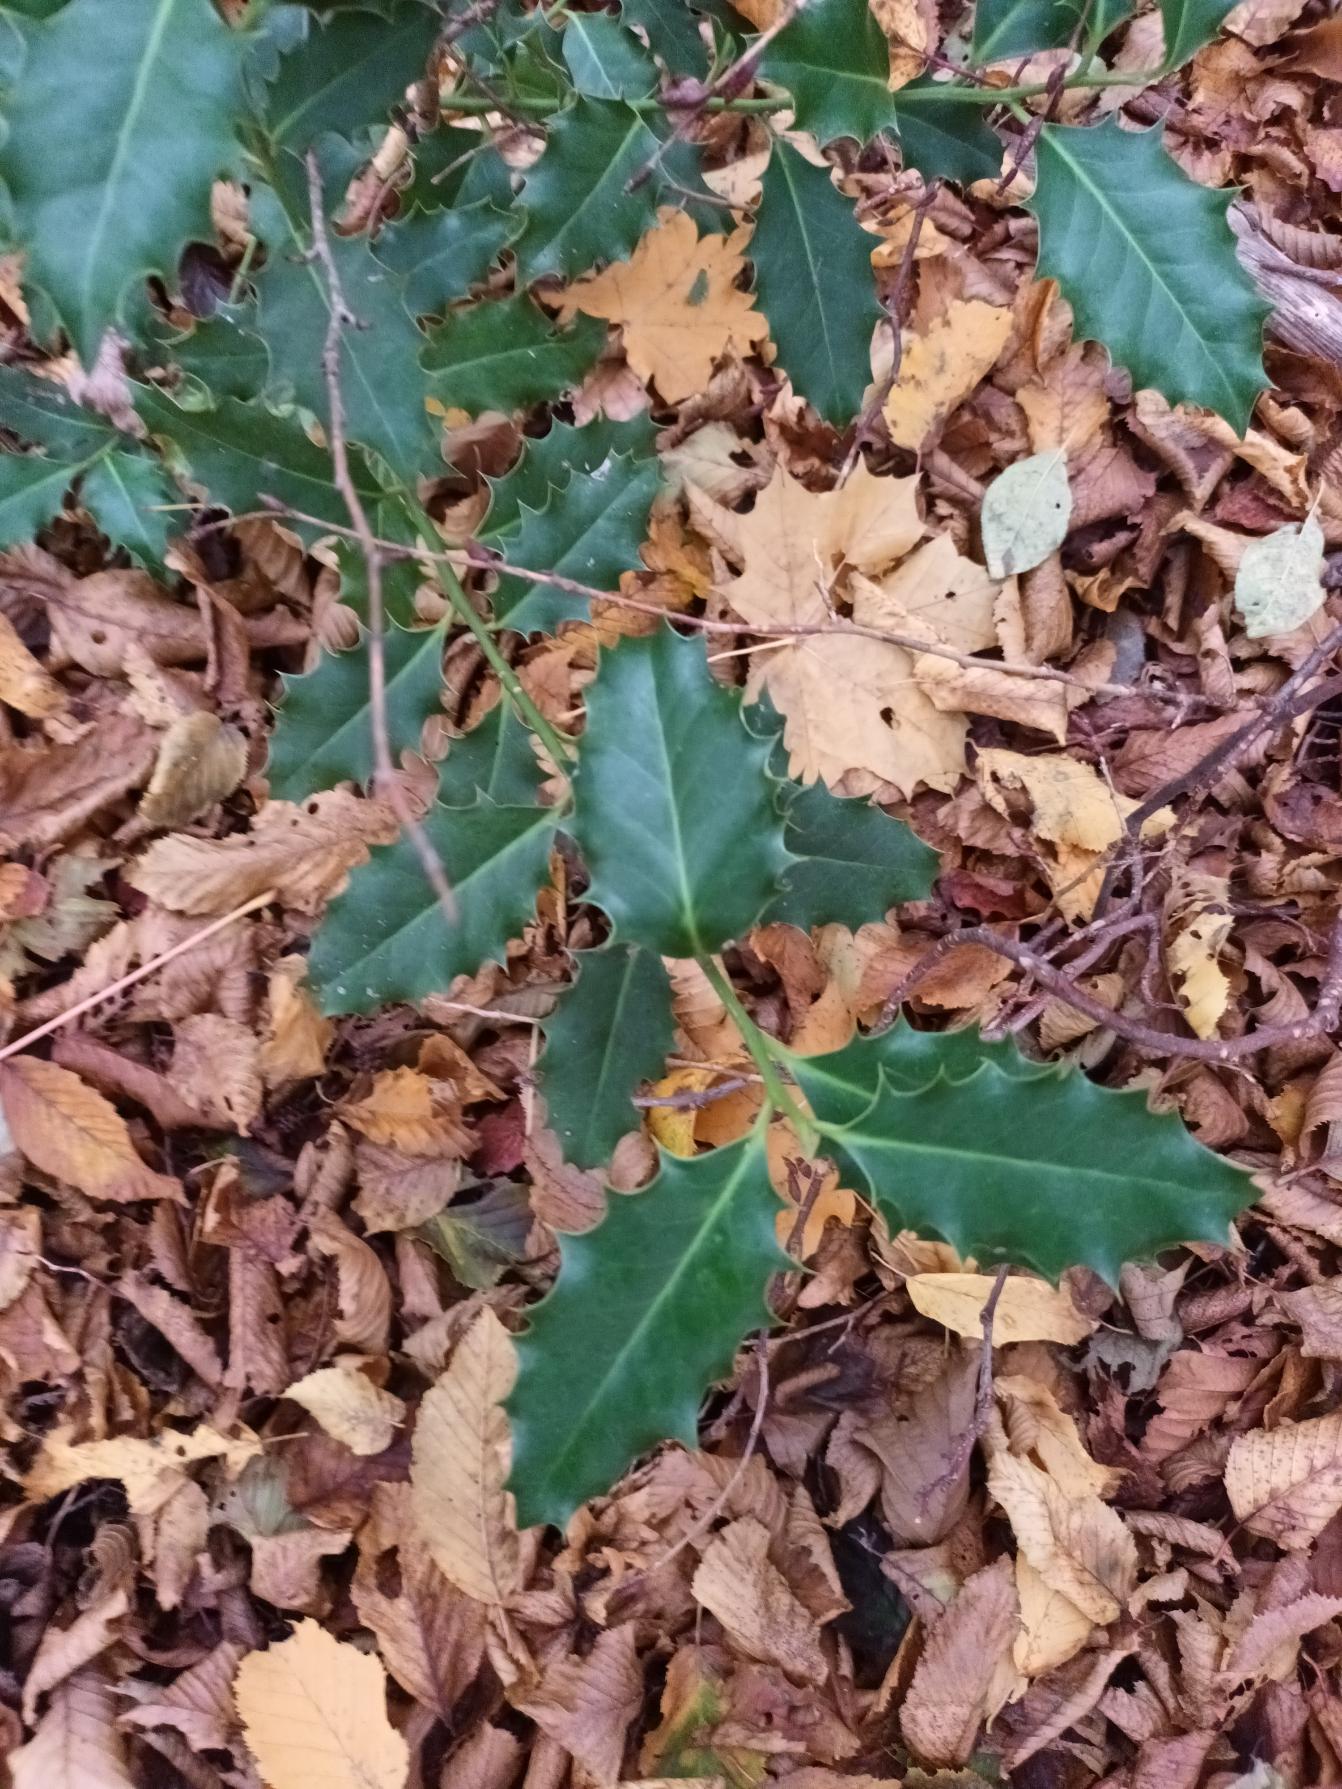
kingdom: Plantae
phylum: Tracheophyta
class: Magnoliopsida
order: Aquifoliales
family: Aquifoliaceae
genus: Ilex
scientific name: Ilex aquifolium
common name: Kristtorn
